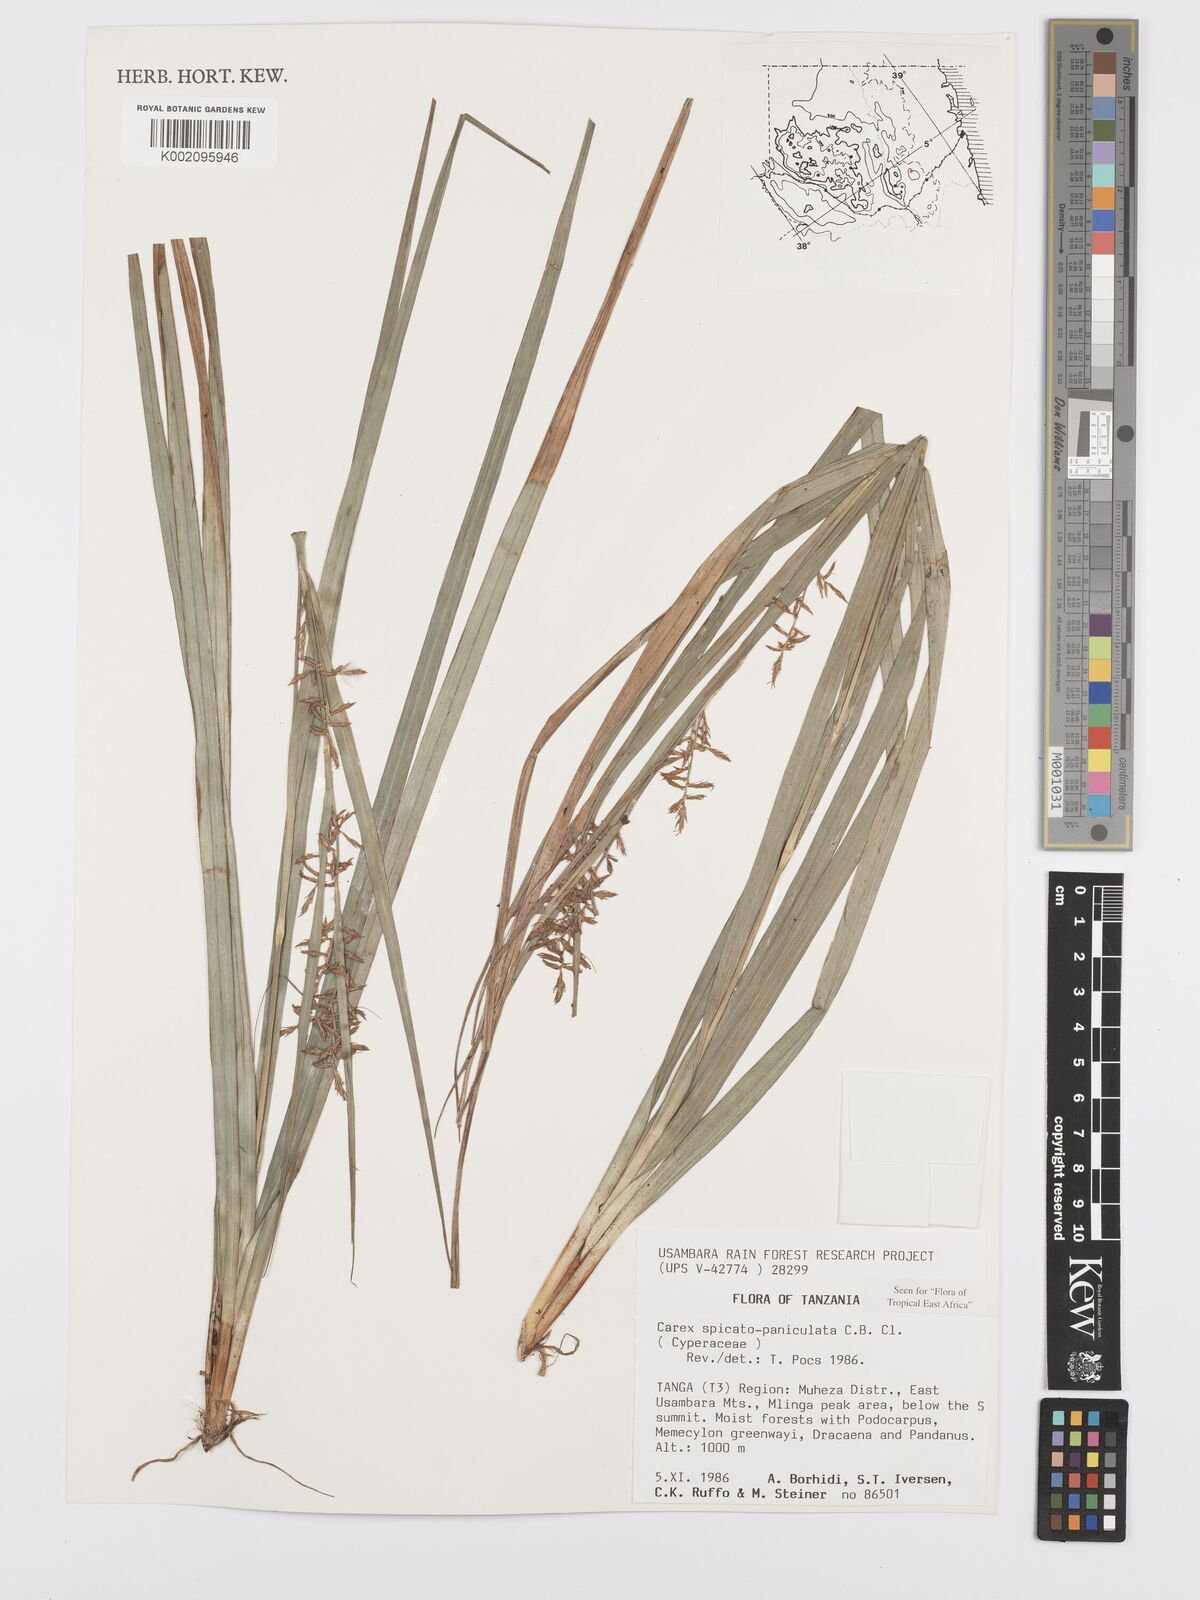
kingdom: Plantae
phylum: Tracheophyta
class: Liliopsida
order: Poales
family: Cyperaceae
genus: Carex
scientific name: Carex spicatopaniculata
